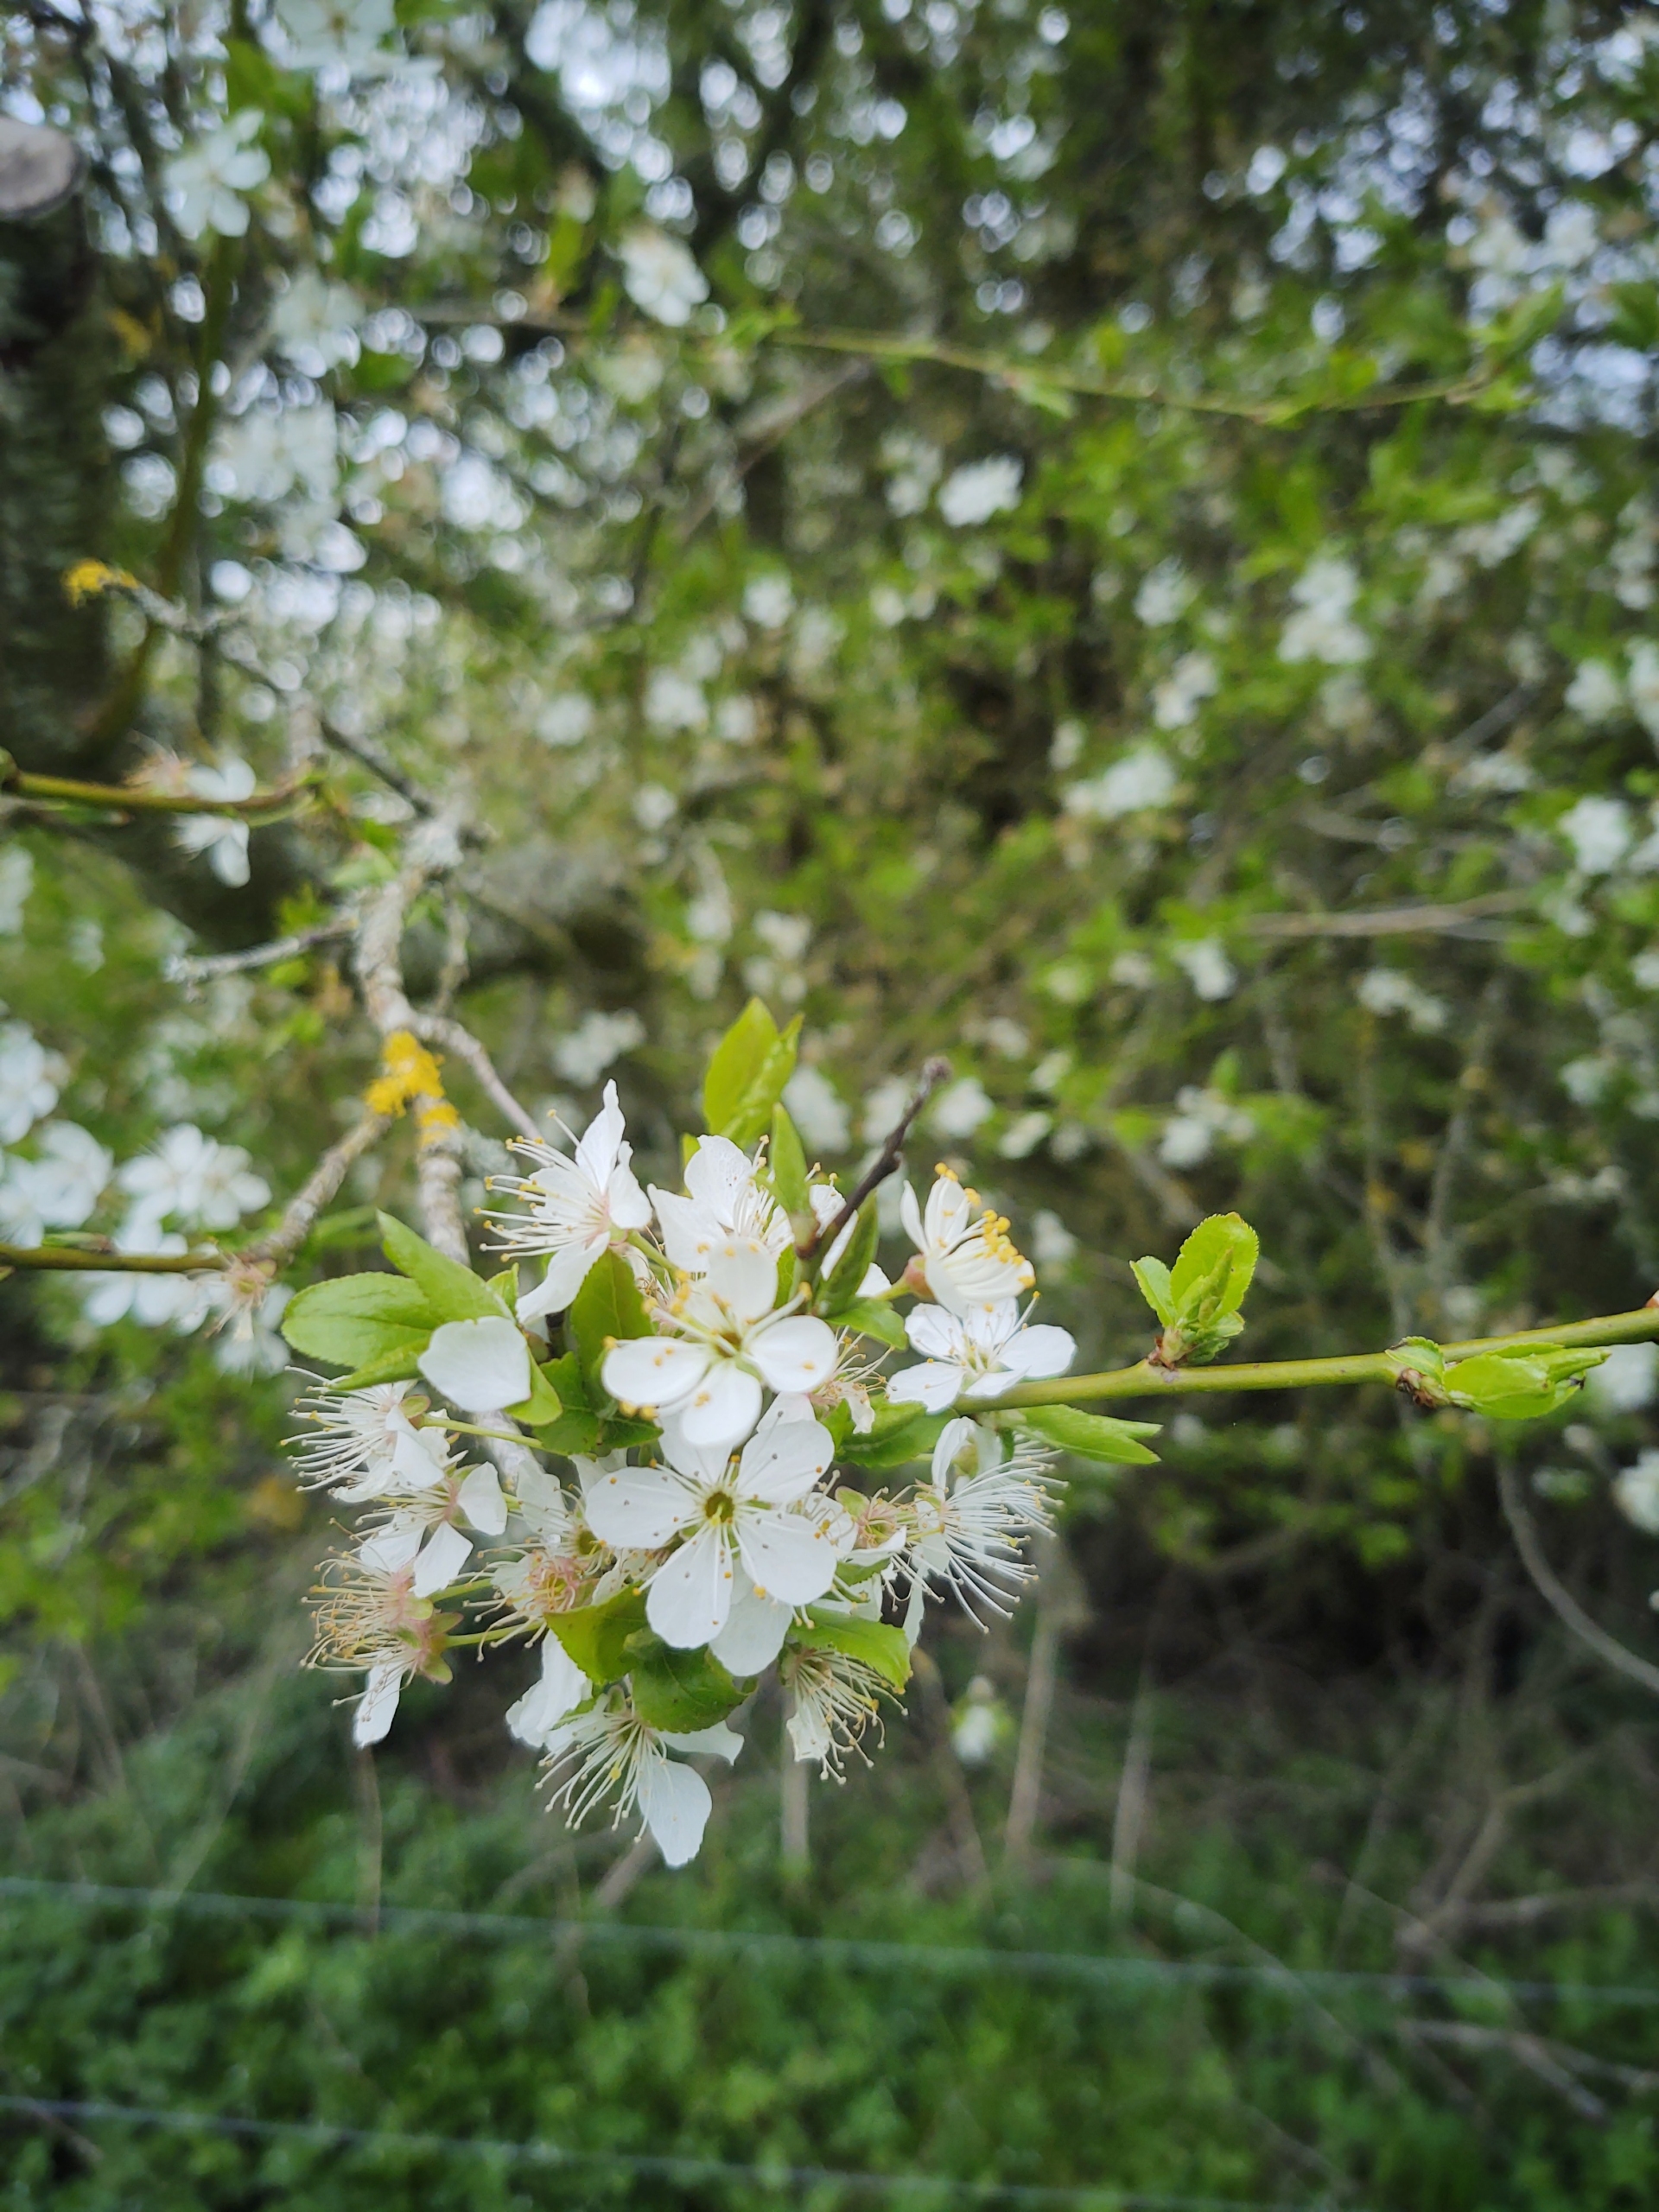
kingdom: Plantae
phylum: Tracheophyta
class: Magnoliopsida
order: Rosales
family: Rosaceae
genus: Prunus
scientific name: Prunus cerasifera
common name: Mirabel
